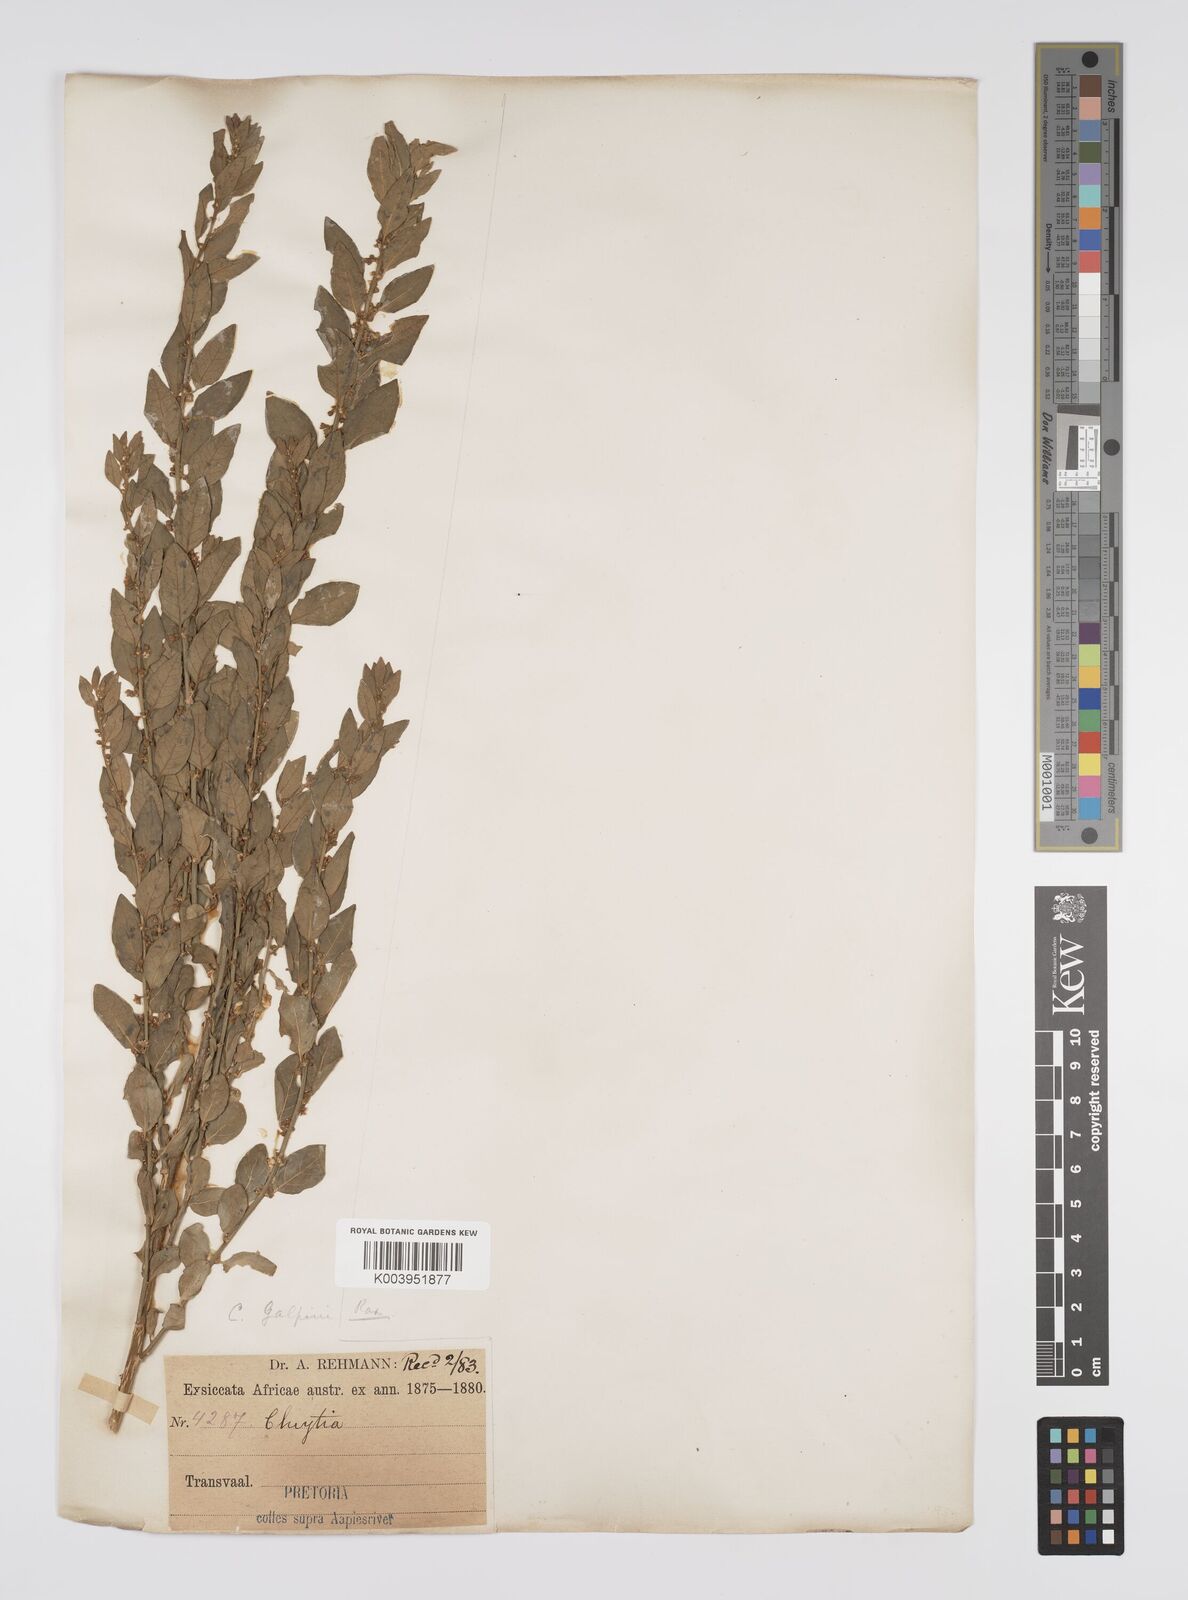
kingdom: Plantae
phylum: Tracheophyta
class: Magnoliopsida
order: Malpighiales
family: Peraceae
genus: Clutia
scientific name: Clutia galpinii
